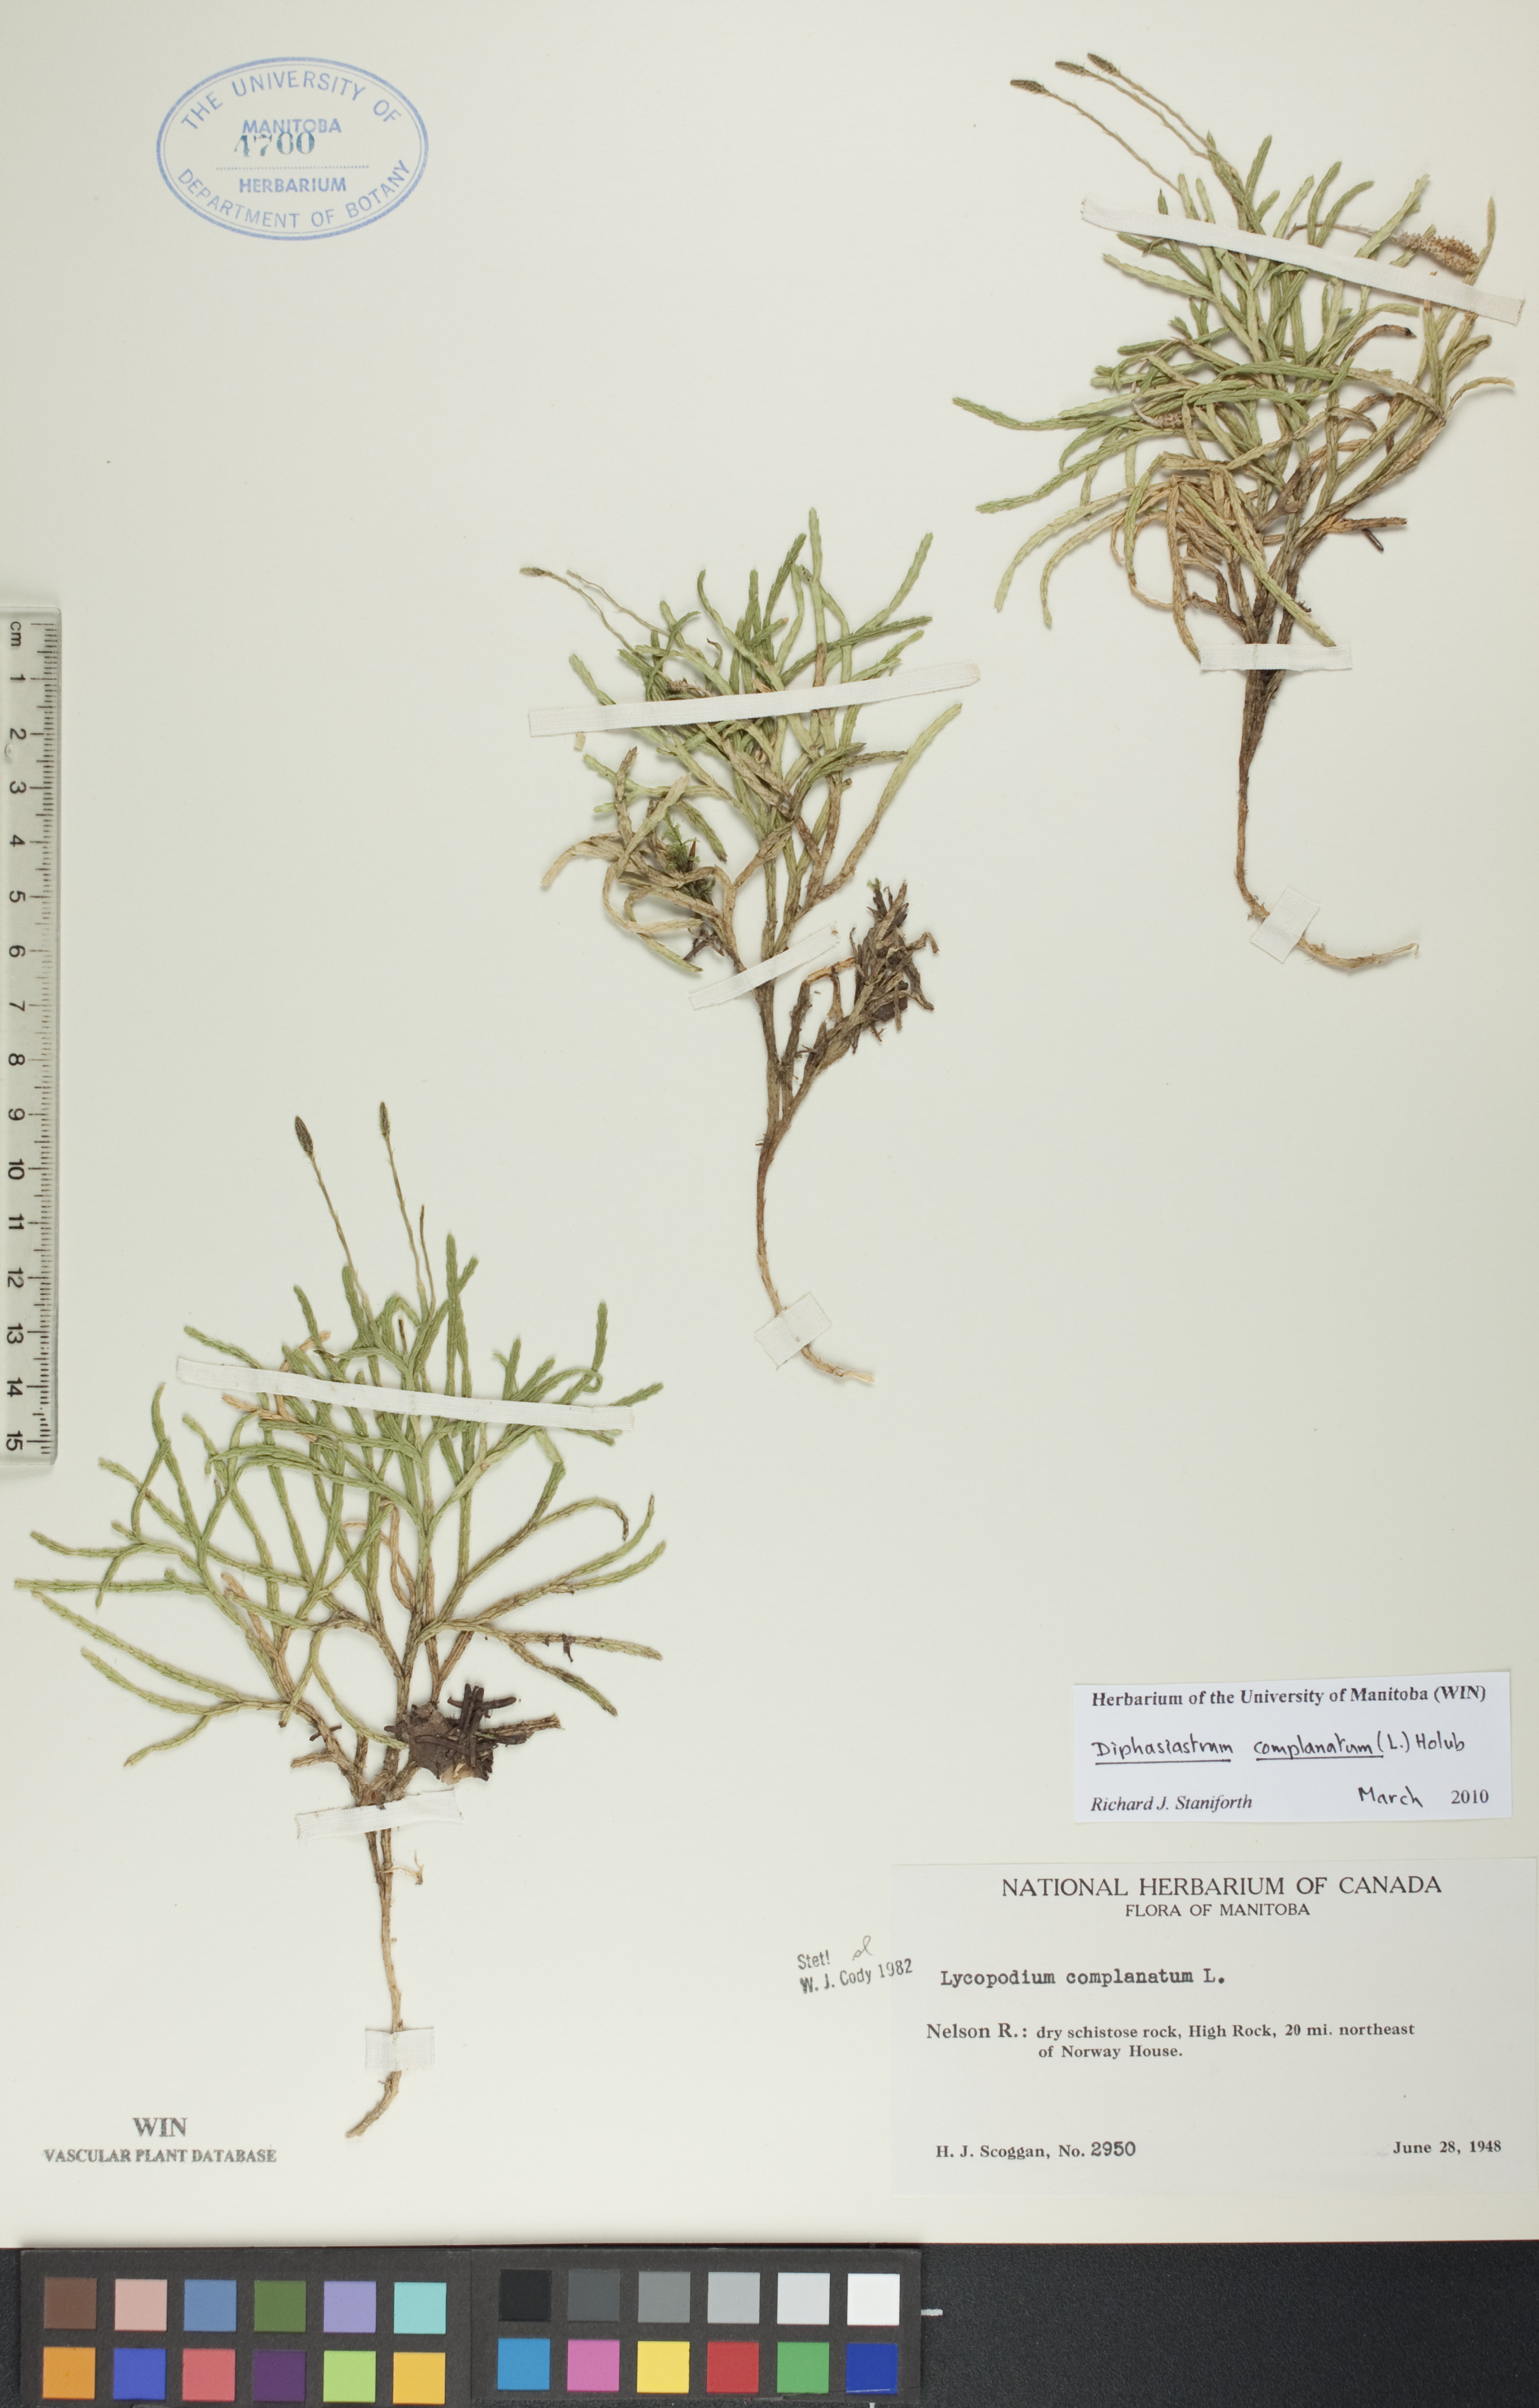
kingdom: Plantae
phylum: Tracheophyta
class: Lycopodiopsida
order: Lycopodiales
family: Lycopodiaceae
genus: Diphasiastrum
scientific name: Diphasiastrum complanatum
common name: Northern running-pine
